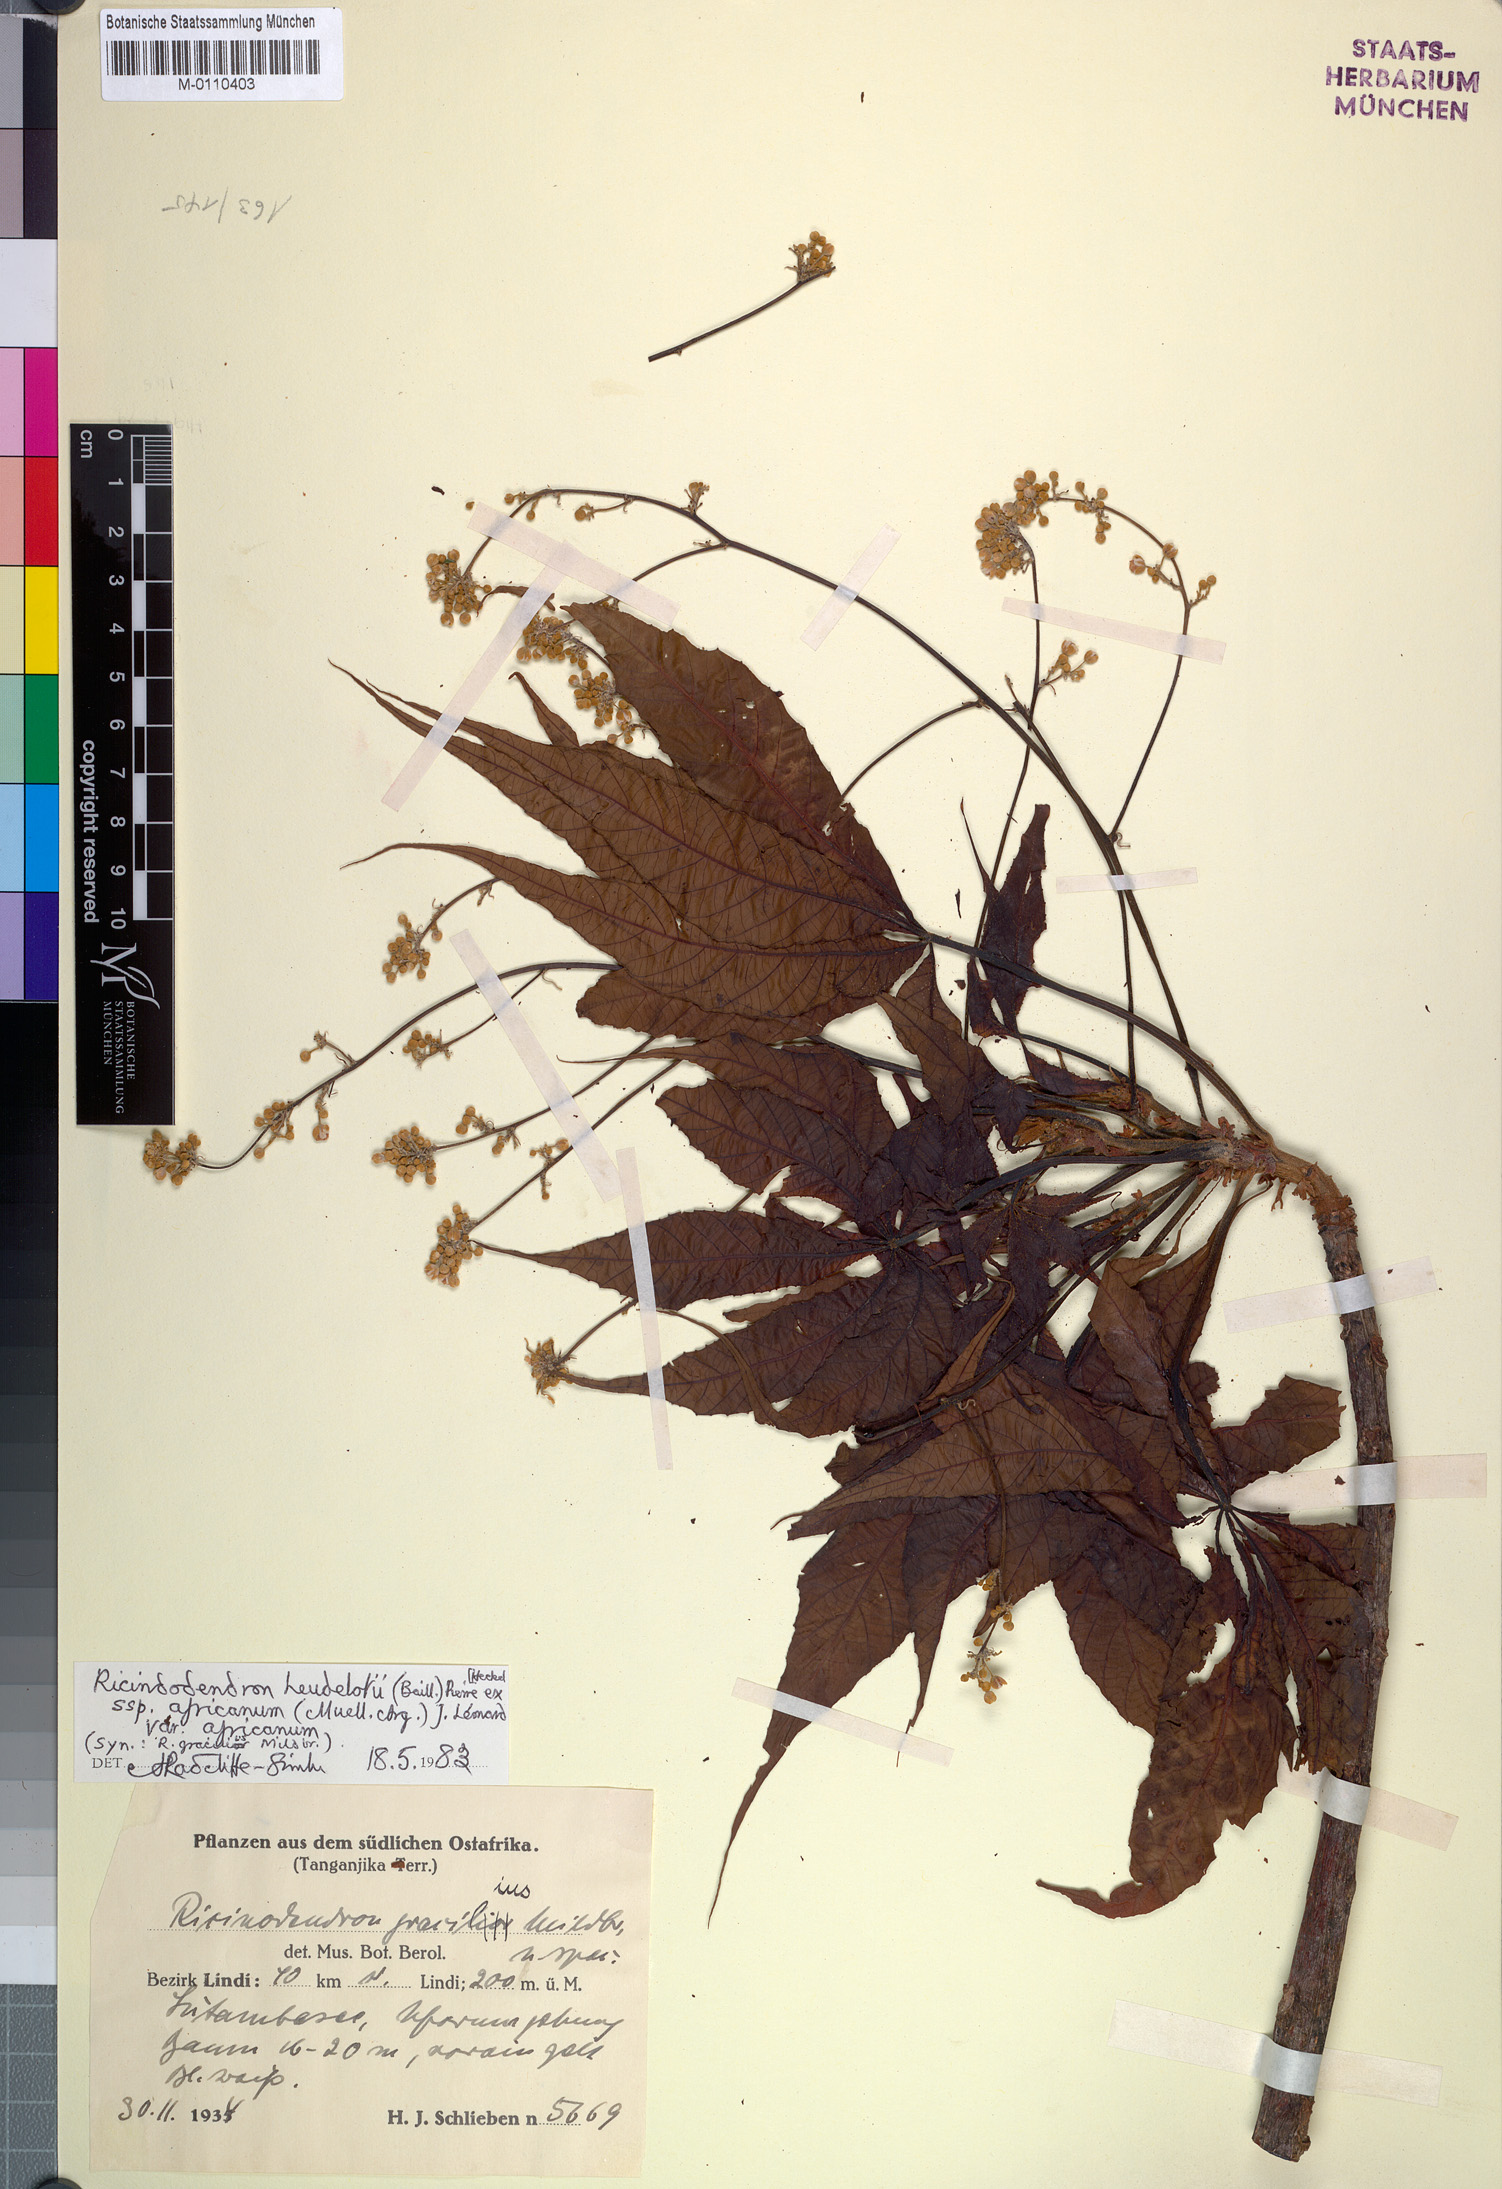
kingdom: Plantae
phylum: Tracheophyta
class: Magnoliopsida
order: Malpighiales
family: Euphorbiaceae
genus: Ricinodendron
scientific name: Ricinodendron heudelotii
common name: African nut-tree
